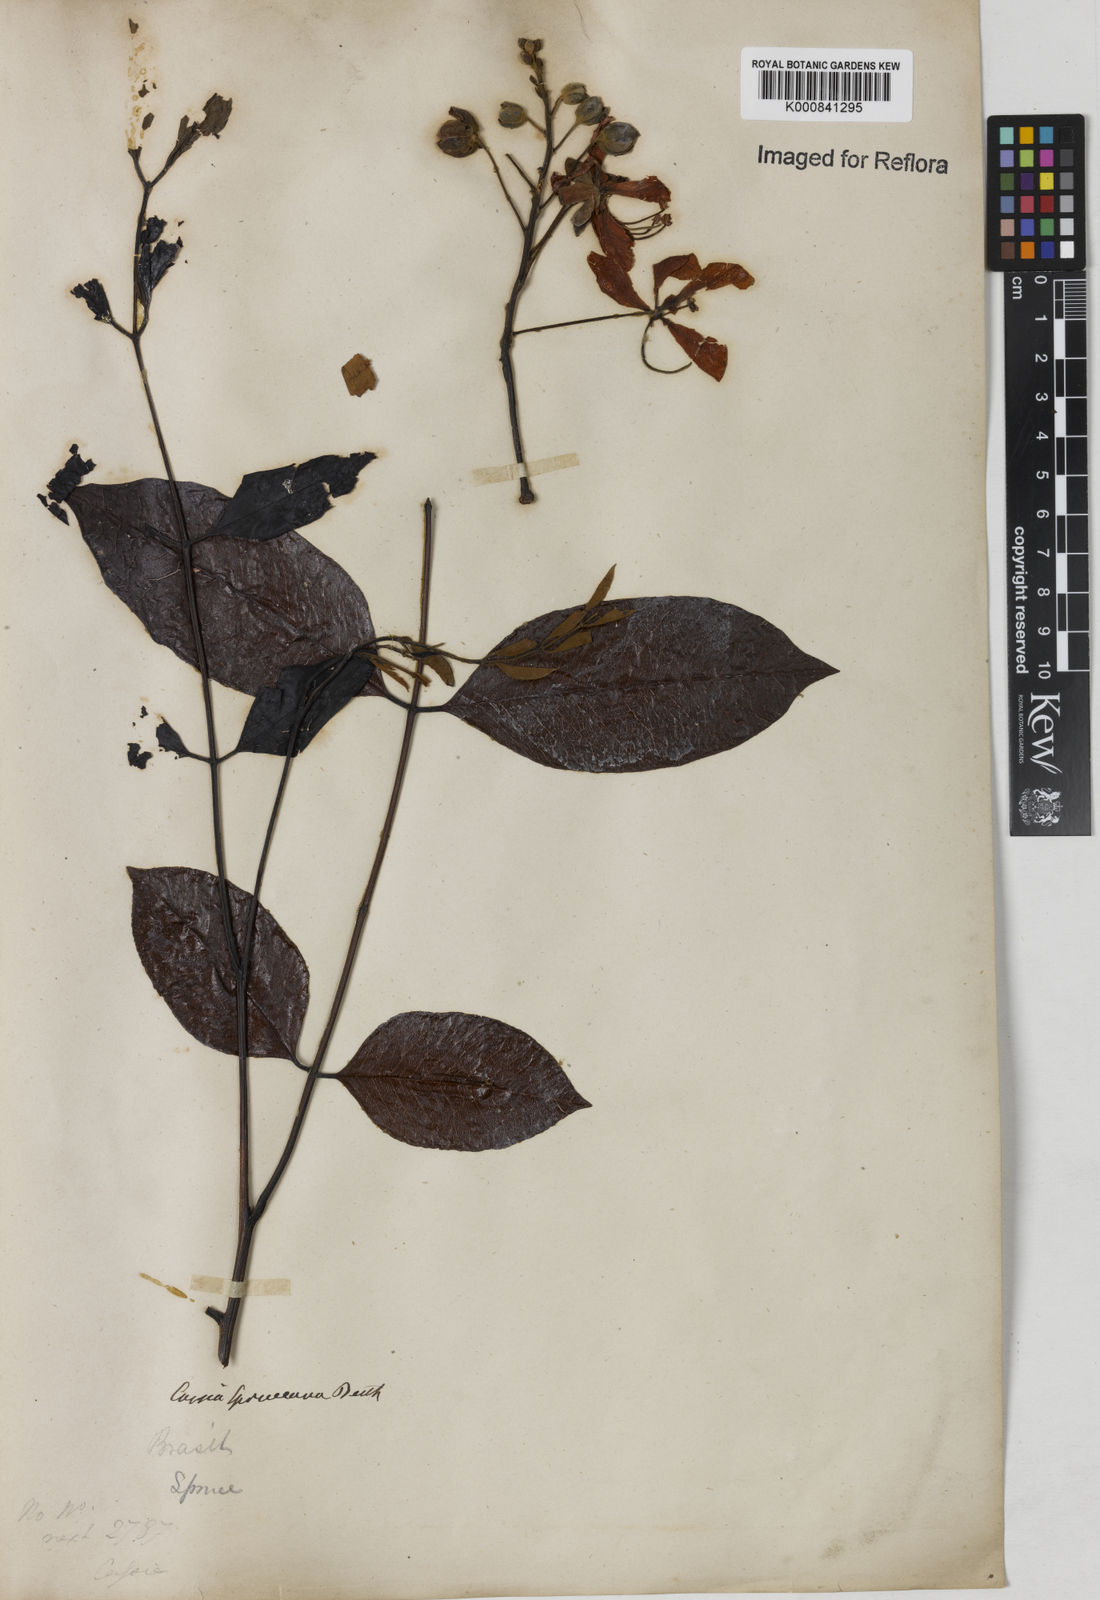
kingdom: Plantae
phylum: Tracheophyta
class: Magnoliopsida
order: Fabales
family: Fabaceae
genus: Cassia
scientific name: Cassia spruceana
